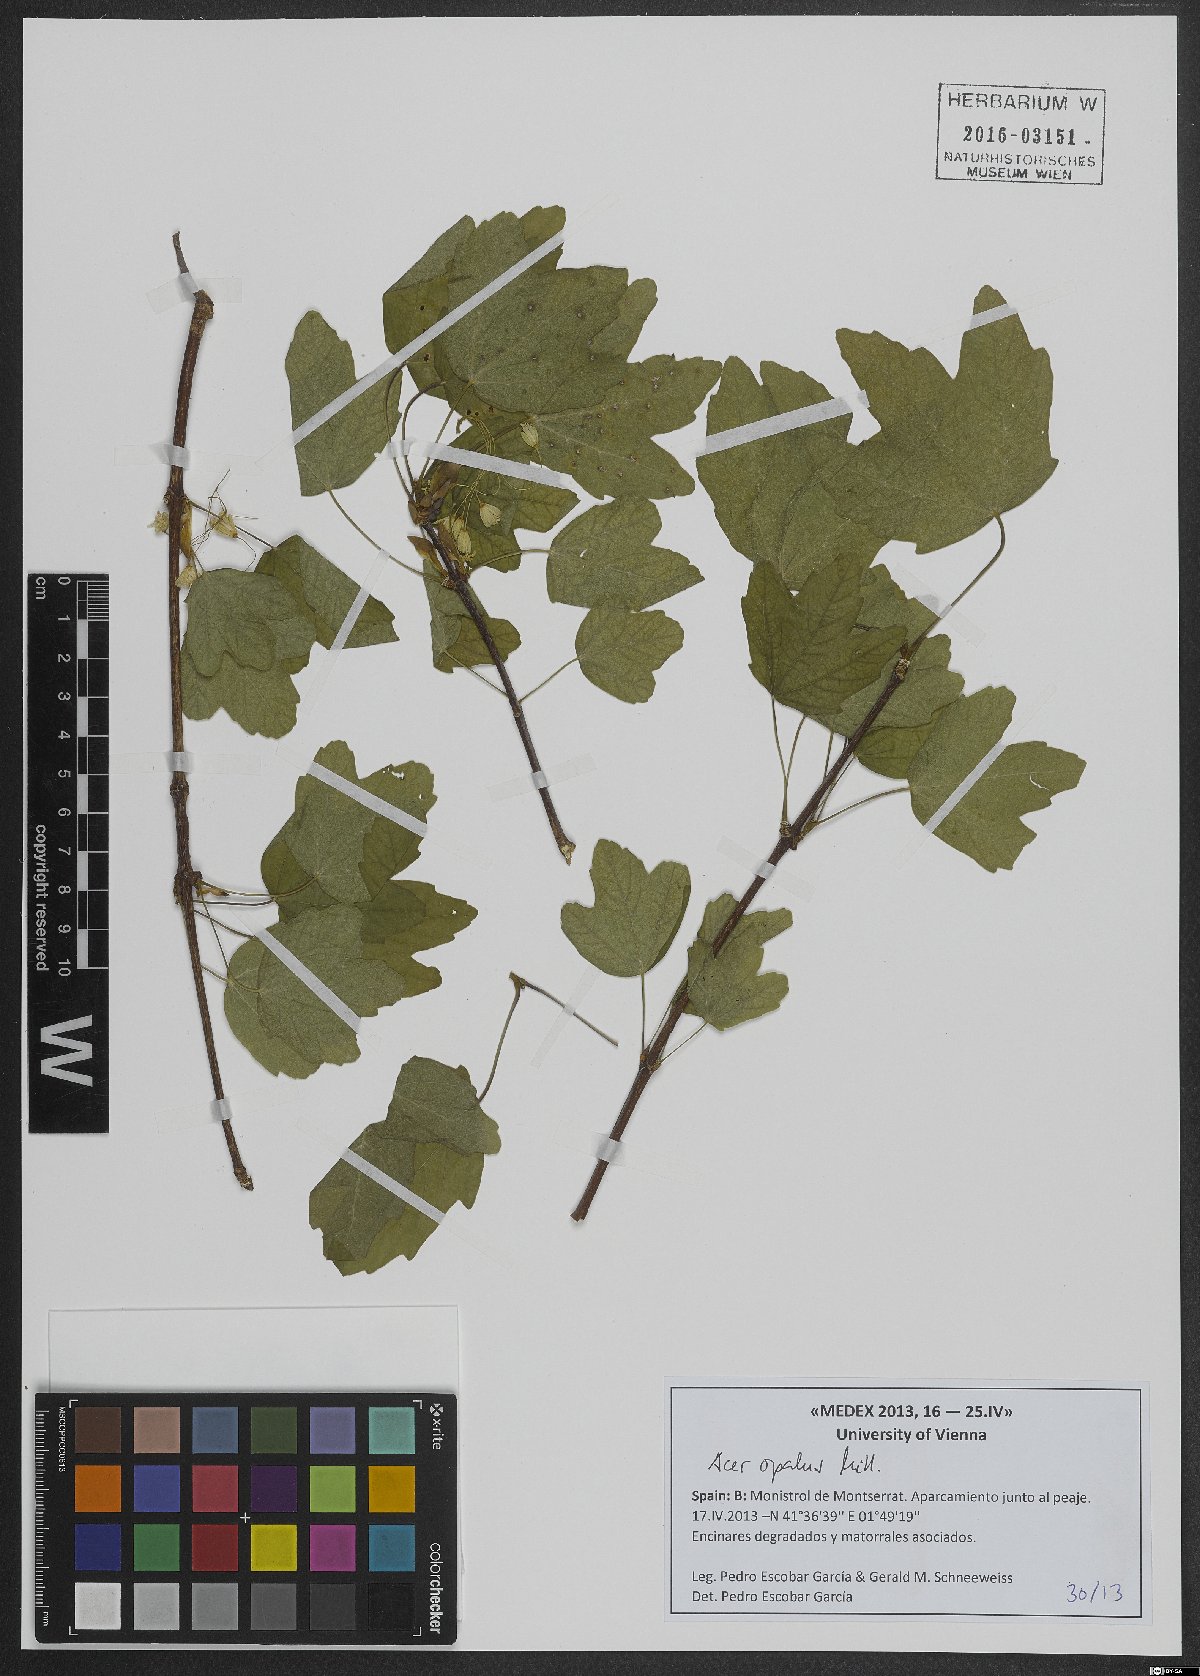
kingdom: Plantae
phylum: Tracheophyta
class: Magnoliopsida
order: Sapindales
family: Sapindaceae
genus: Acer
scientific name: Acer opalus
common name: Italian maple
